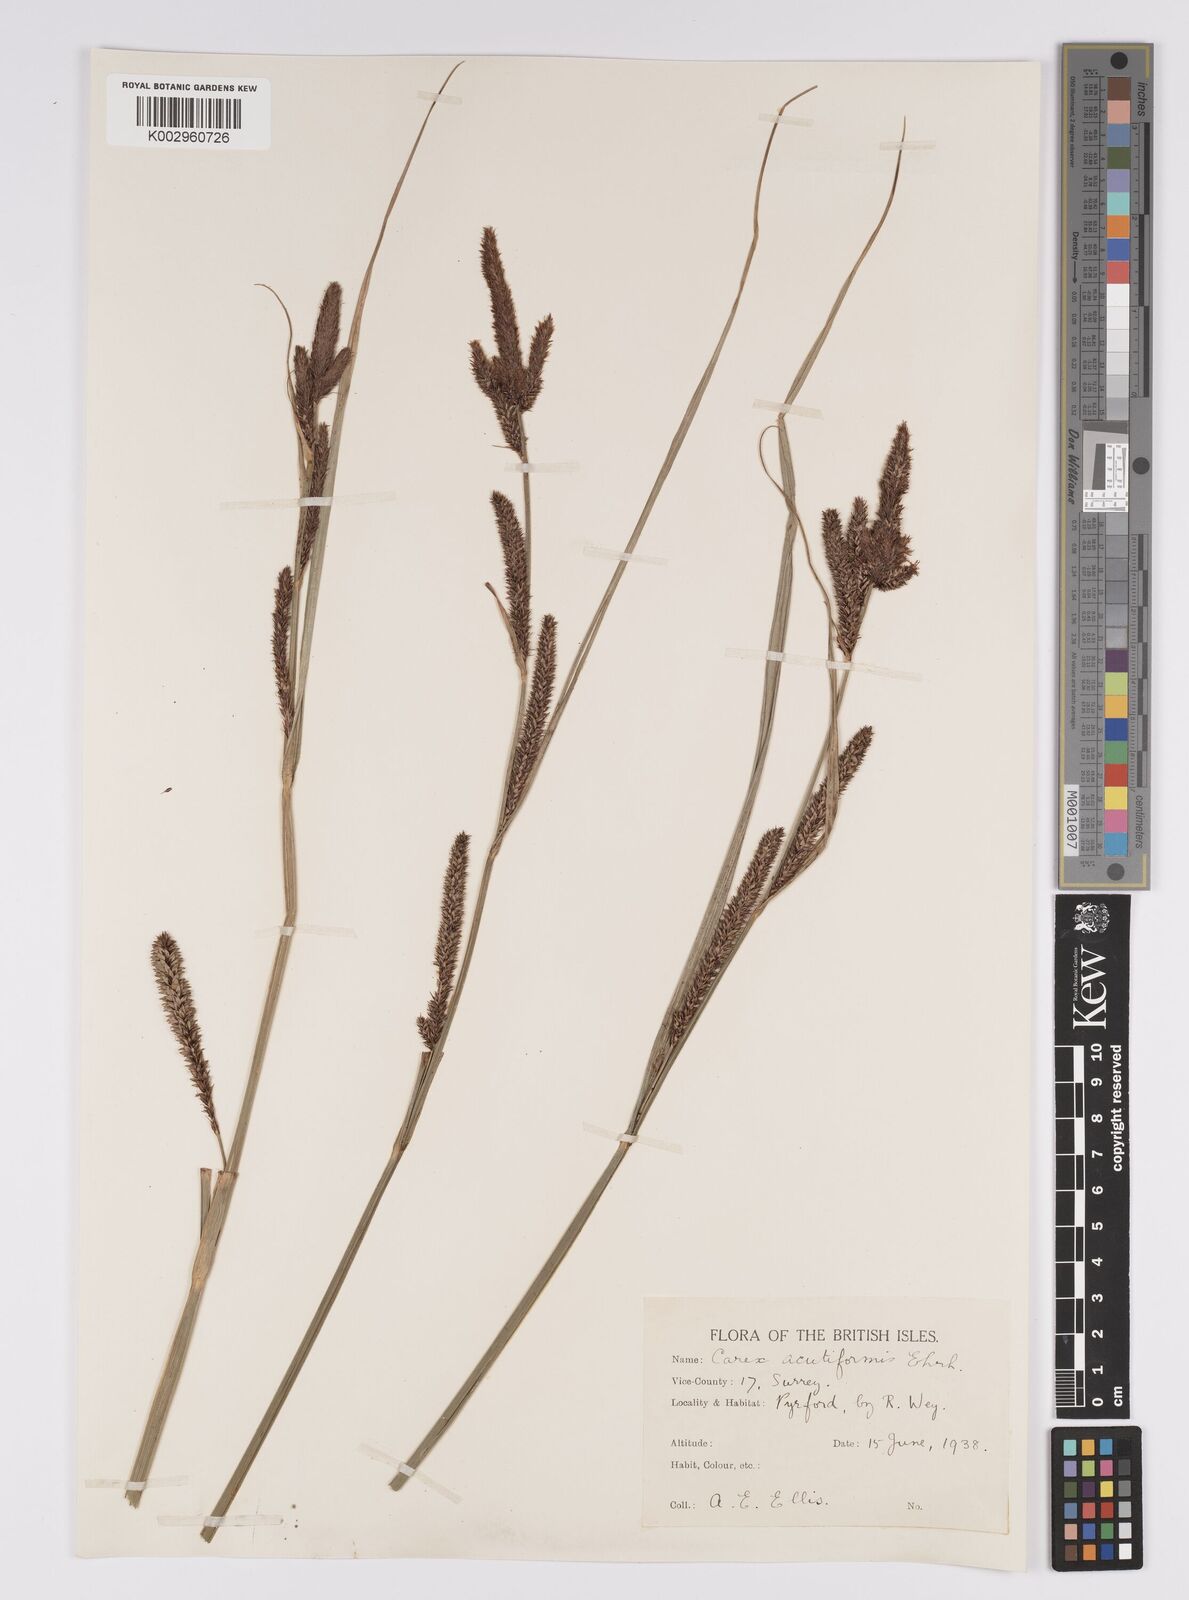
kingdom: Plantae
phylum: Tracheophyta
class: Liliopsida
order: Poales
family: Cyperaceae
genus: Carex
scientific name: Carex acutiformis
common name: Lesser pond-sedge
